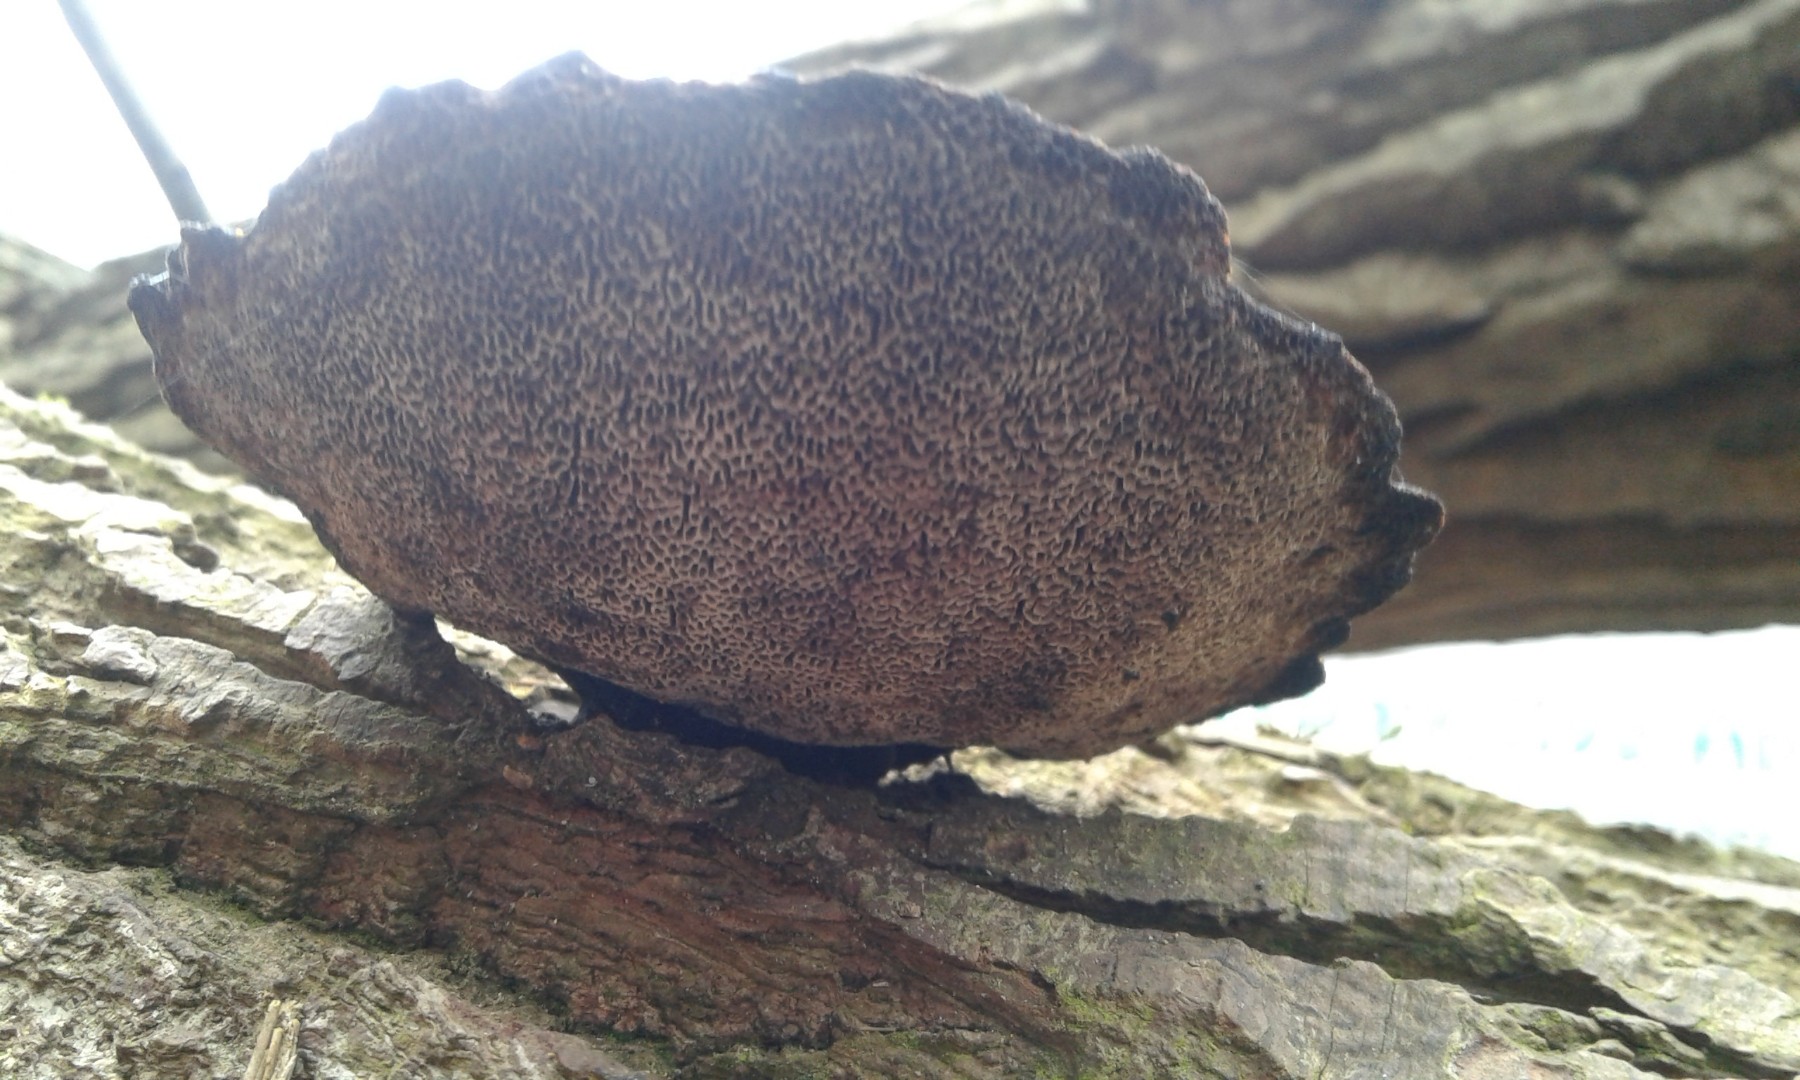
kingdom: Fungi
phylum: Basidiomycota
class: Agaricomycetes
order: Polyporales
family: Polyporaceae
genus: Daedaleopsis
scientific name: Daedaleopsis confragosa
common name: rødmende læderporesvamp
